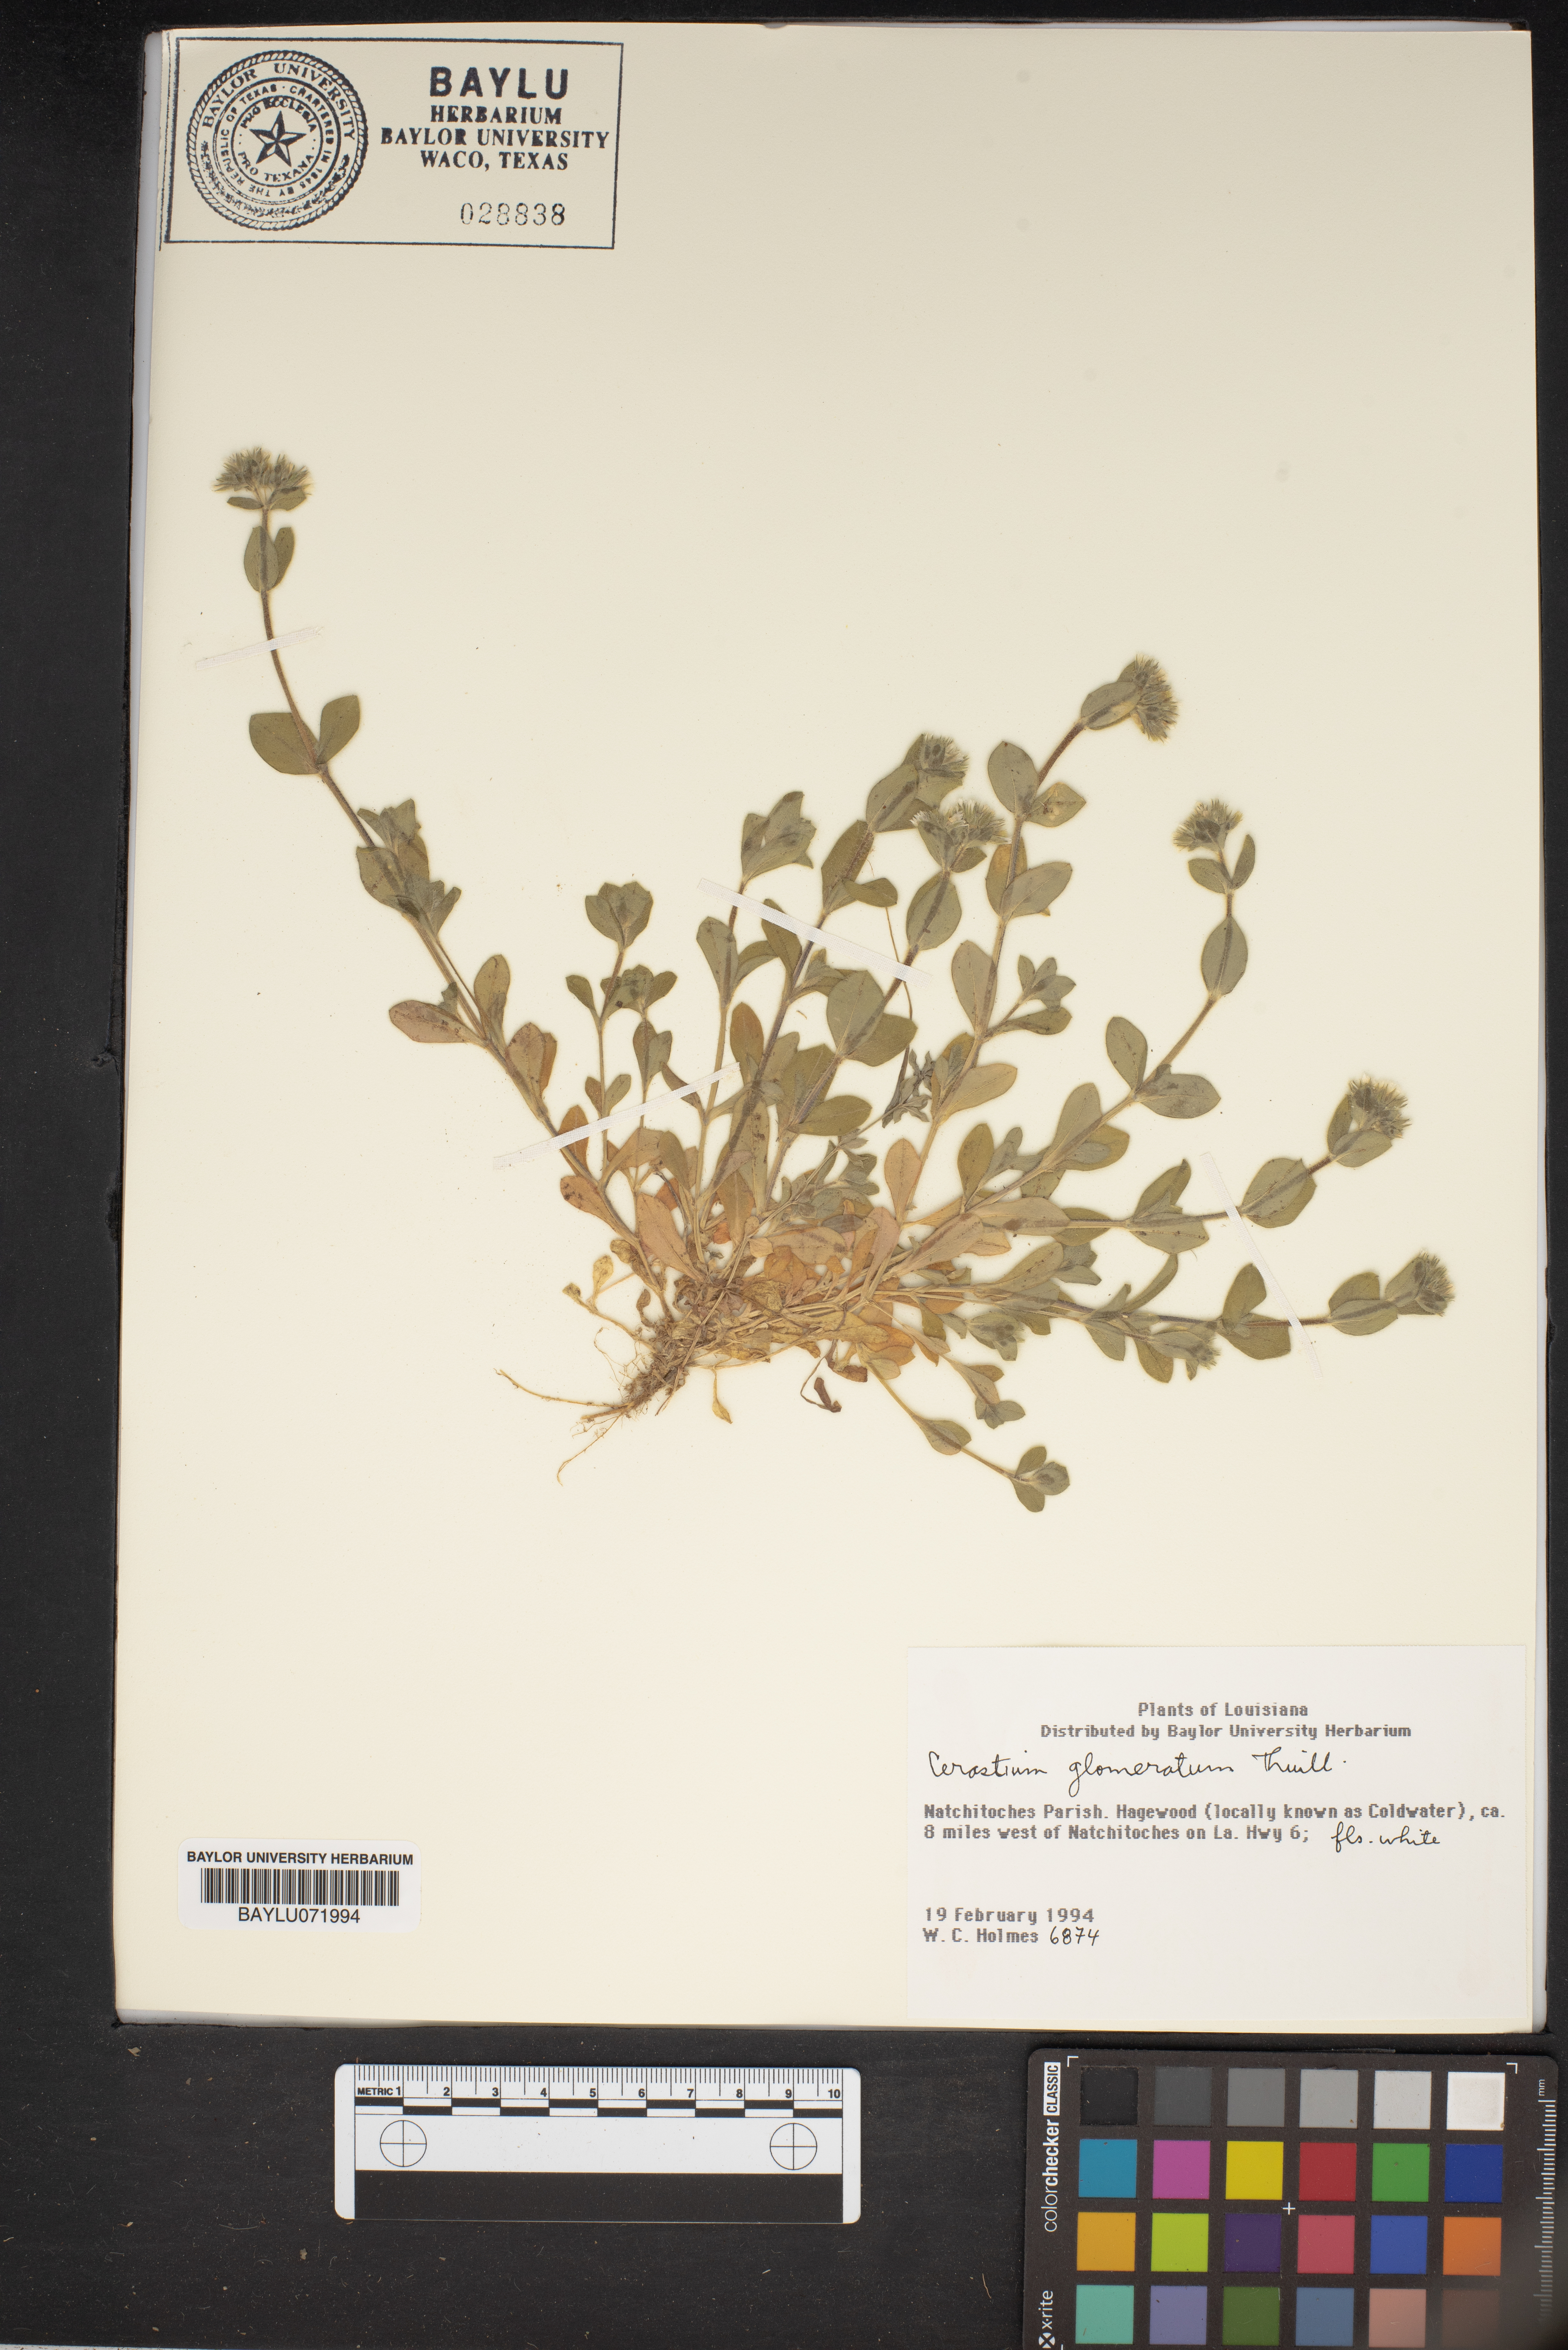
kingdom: Plantae
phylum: Tracheophyta
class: Magnoliopsida
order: Caryophyllales
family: Caryophyllaceae
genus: Cerastium
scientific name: Cerastium glomeratum
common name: Sticky chickweed
